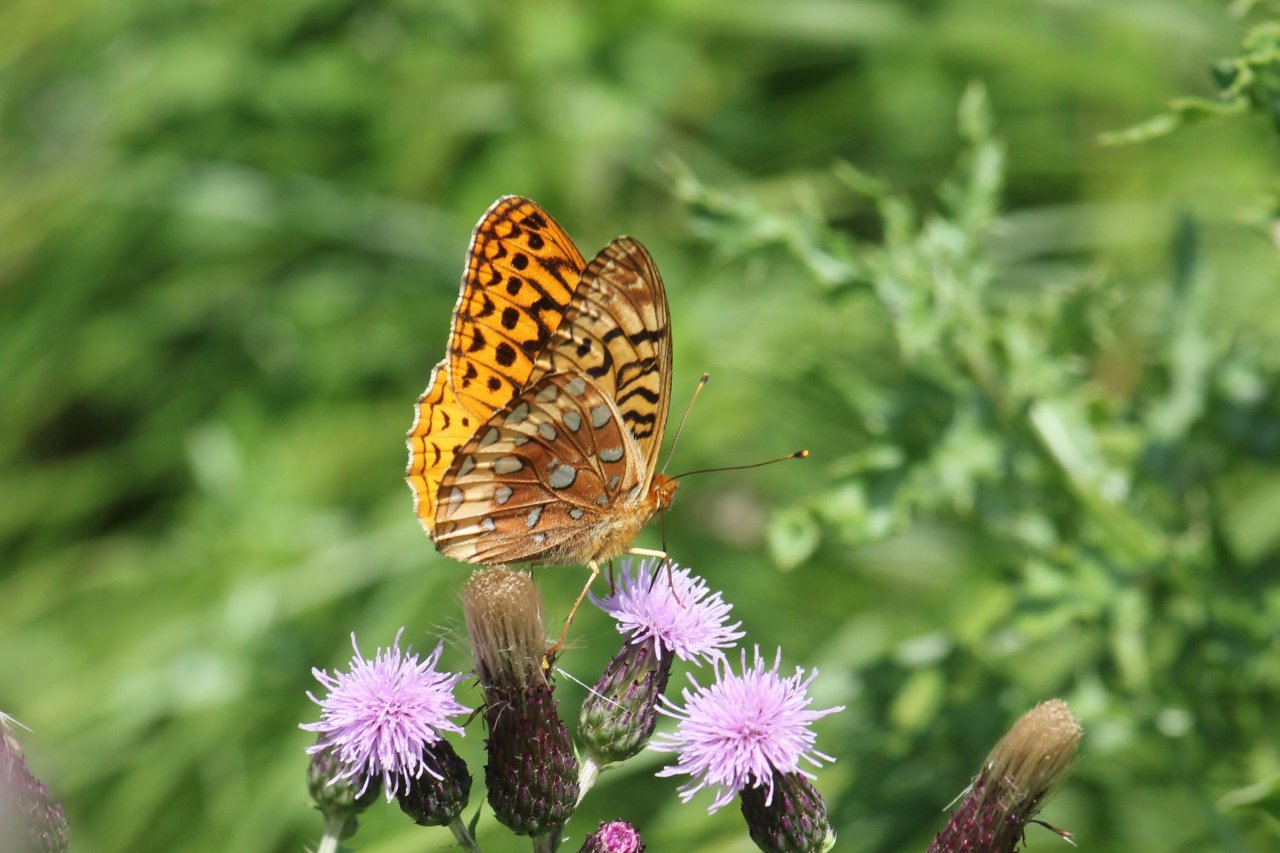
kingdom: Animalia
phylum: Arthropoda
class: Insecta
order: Lepidoptera
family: Nymphalidae
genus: Speyeria
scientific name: Speyeria cybele
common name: Great Spangled Fritillary
